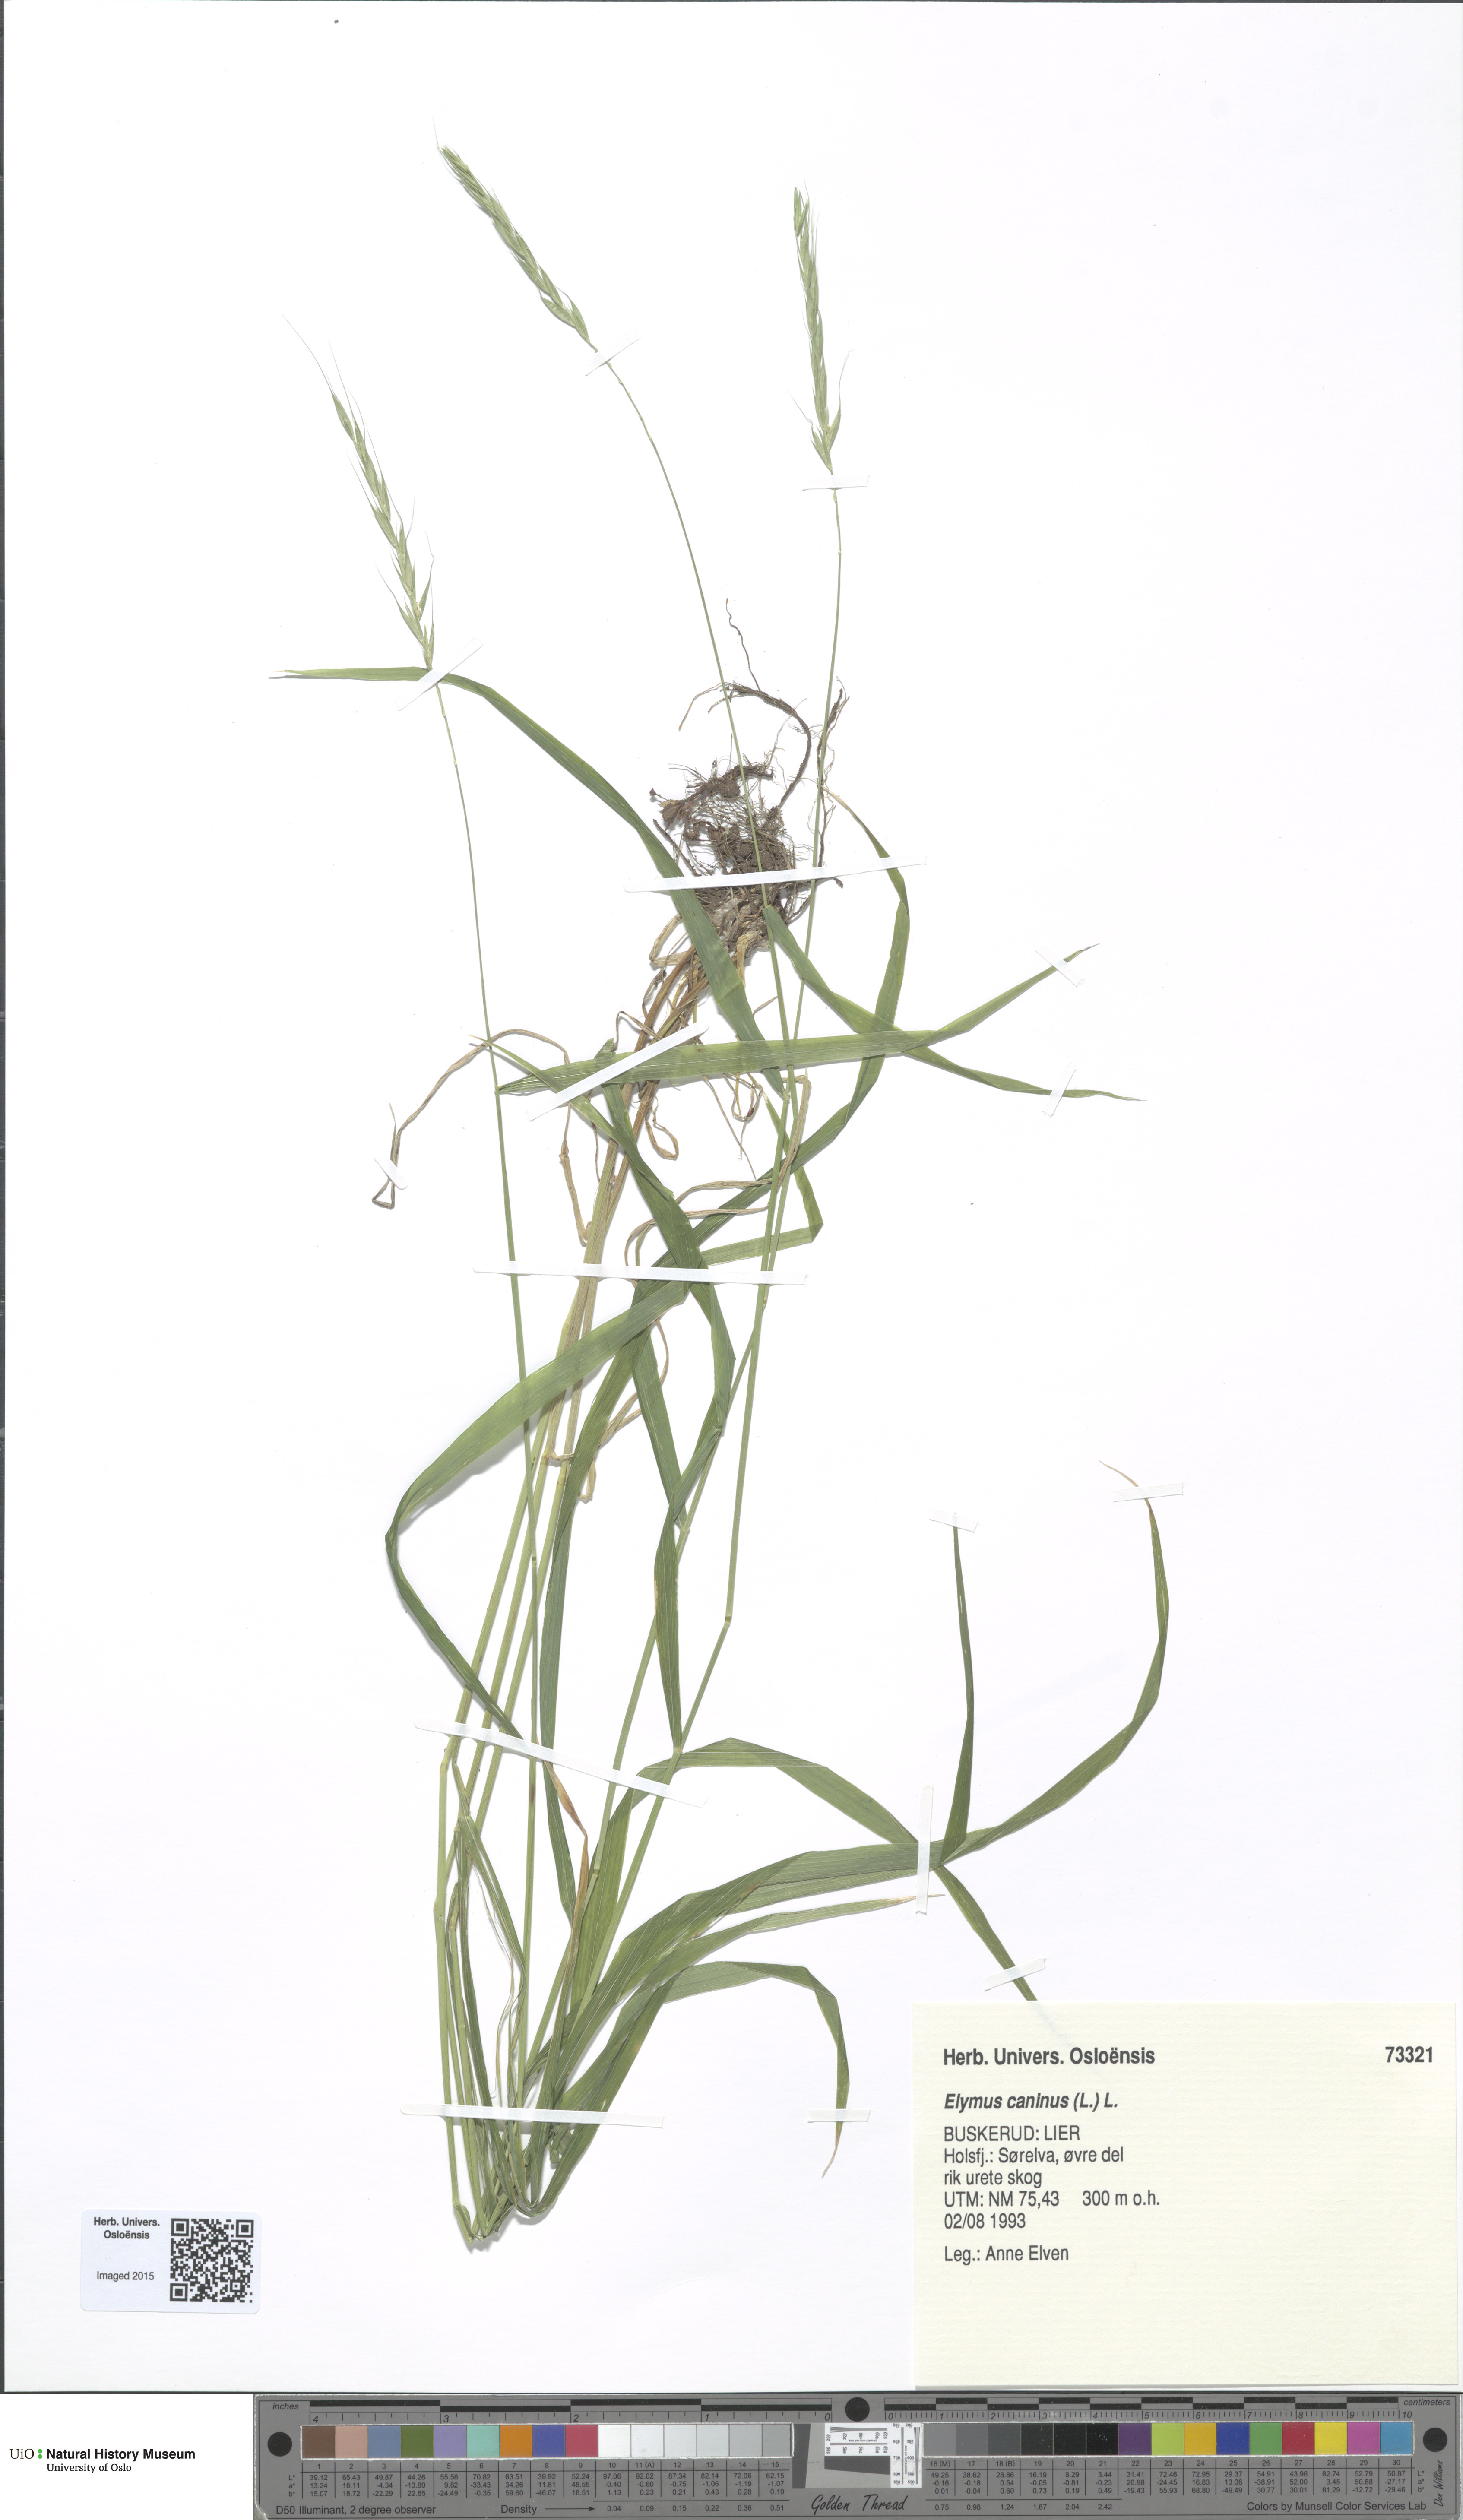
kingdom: Plantae
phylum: Tracheophyta
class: Liliopsida
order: Poales
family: Poaceae
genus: Elymus
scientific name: Elymus caninus
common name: Bearded couch
